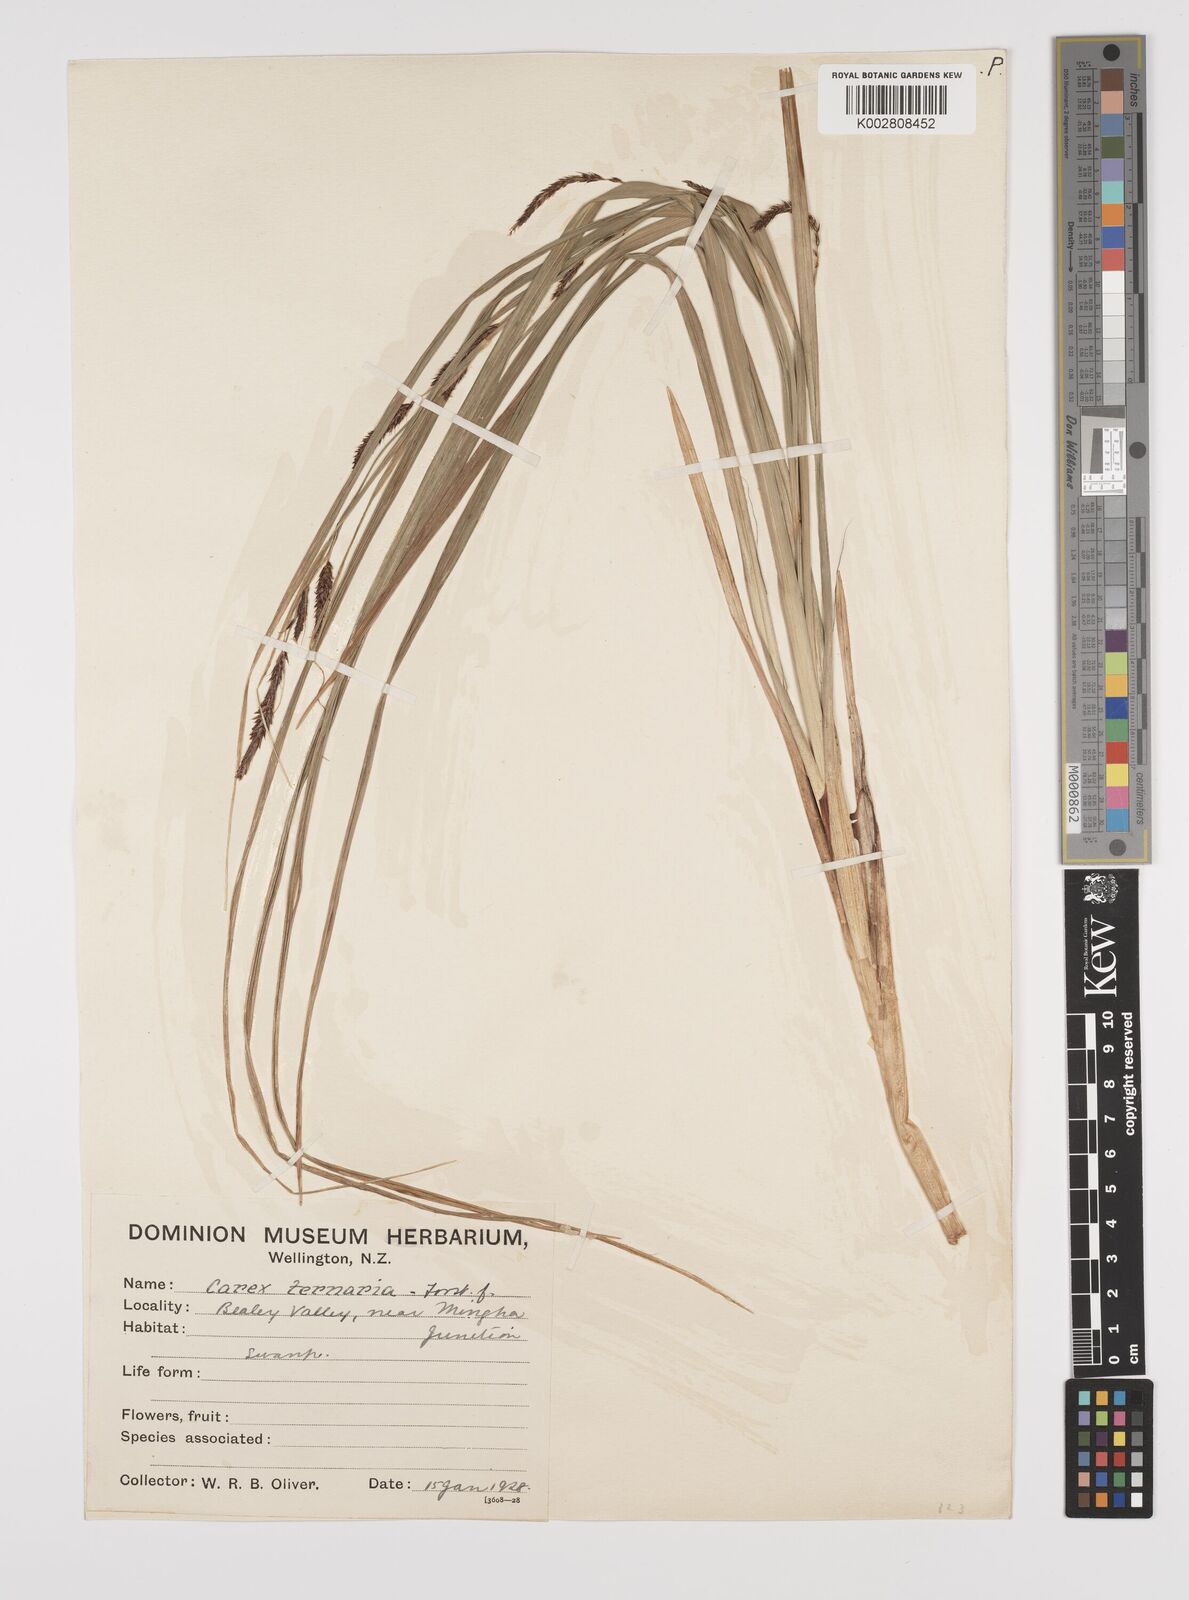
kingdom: Plantae
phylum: Tracheophyta
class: Liliopsida
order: Poales
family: Cyperaceae
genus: Carex
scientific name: Carex coriacea
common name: Rautahi
